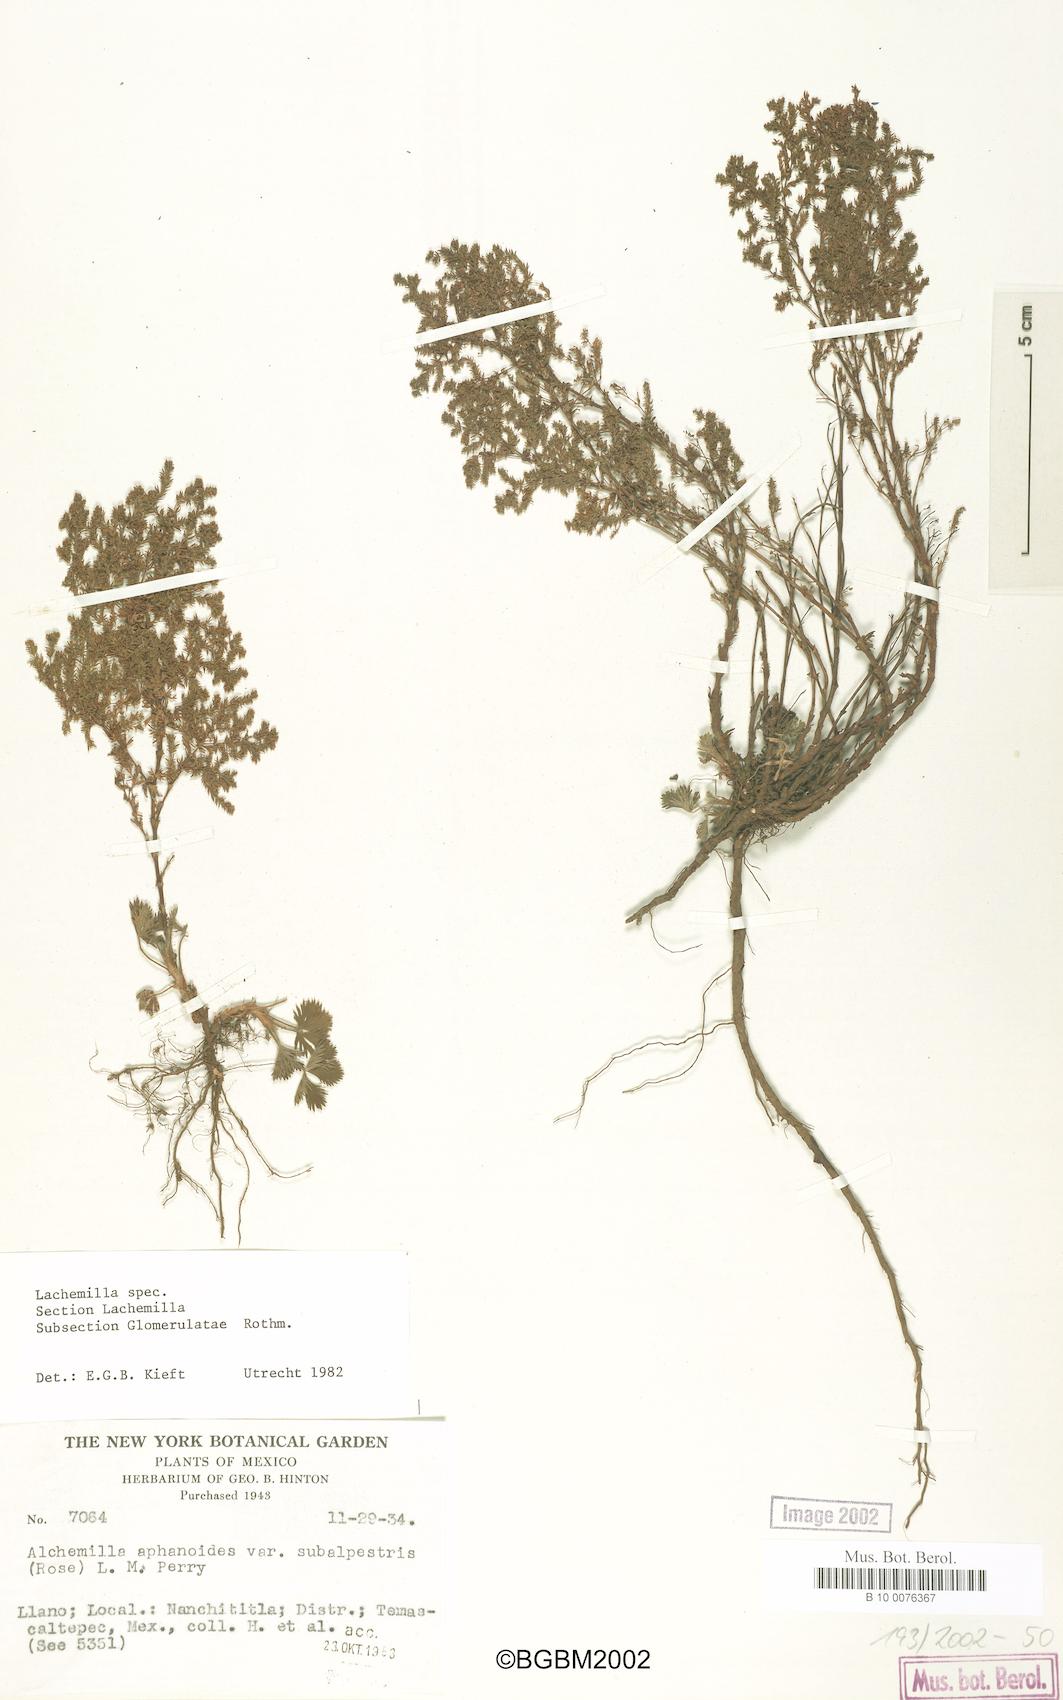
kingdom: Plantae
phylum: Tracheophyta
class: Magnoliopsida
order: Rosales
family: Rosaceae
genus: Lachemilla
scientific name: Lachemilla
